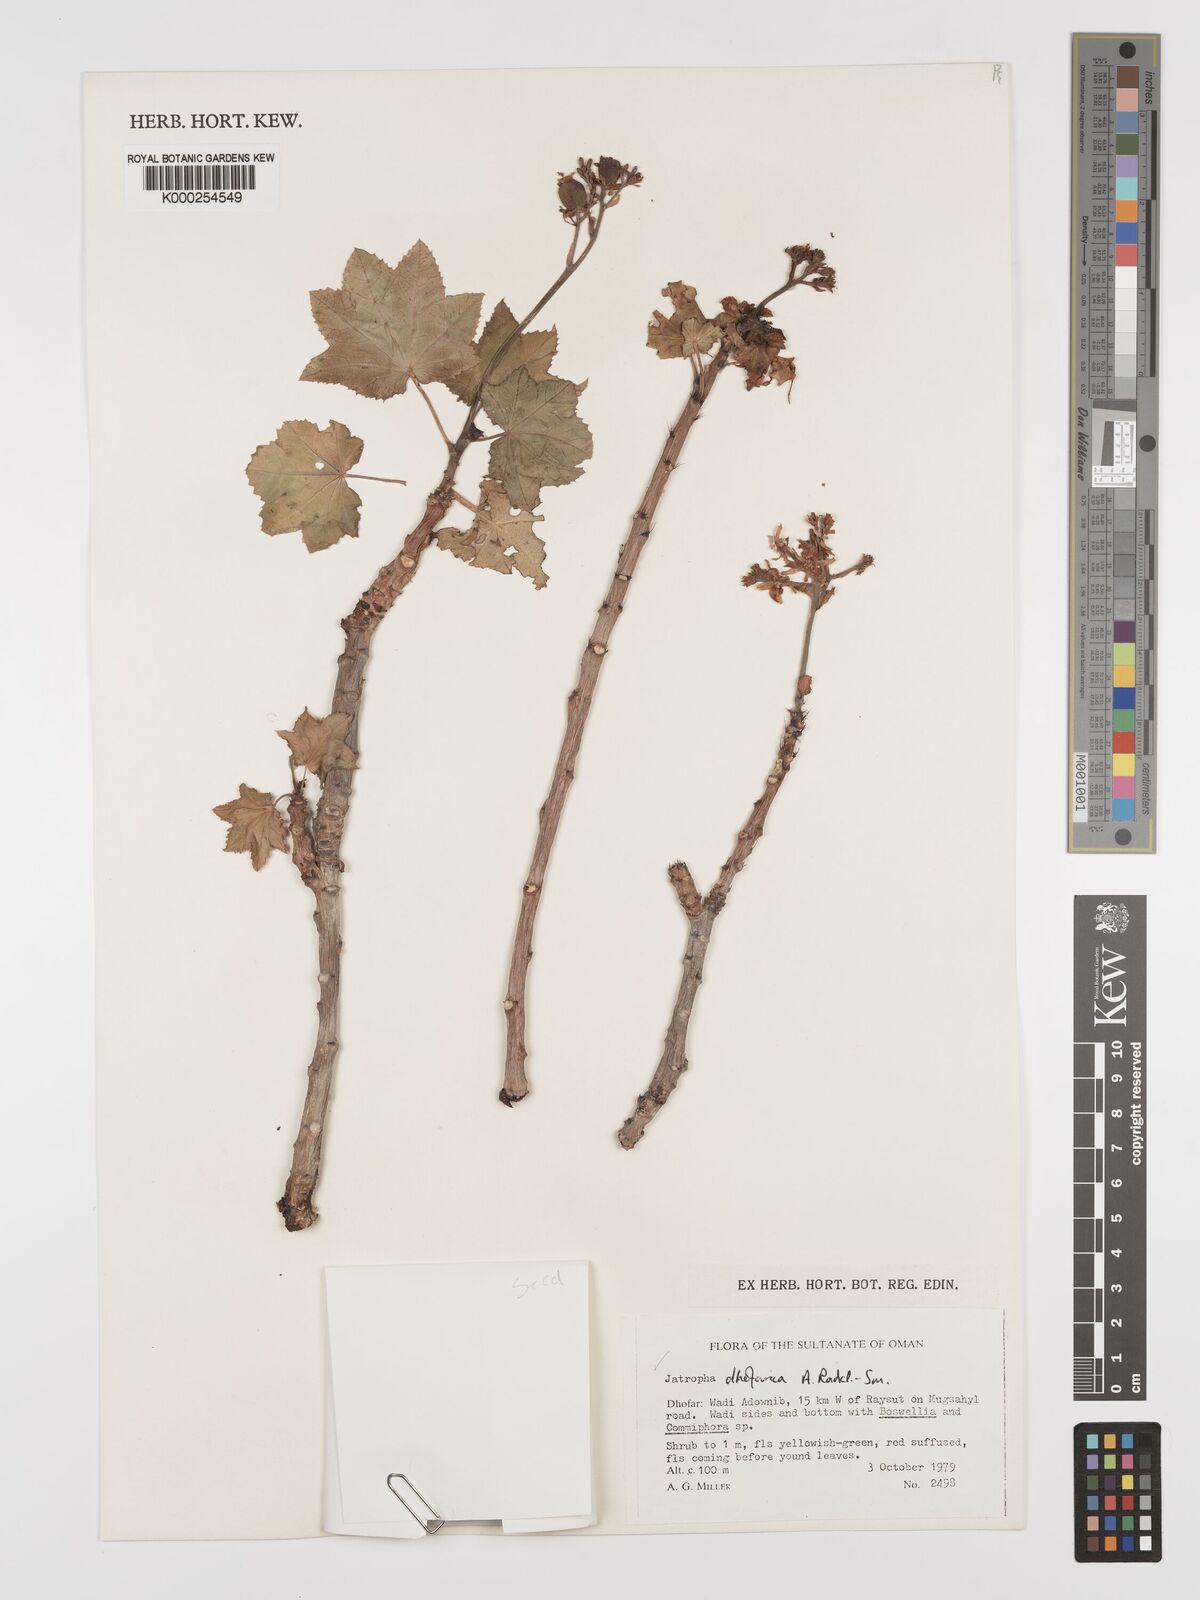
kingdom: Plantae
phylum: Tracheophyta
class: Magnoliopsida
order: Malpighiales
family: Euphorbiaceae
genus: Jatropha
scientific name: Jatropha dhofarica
